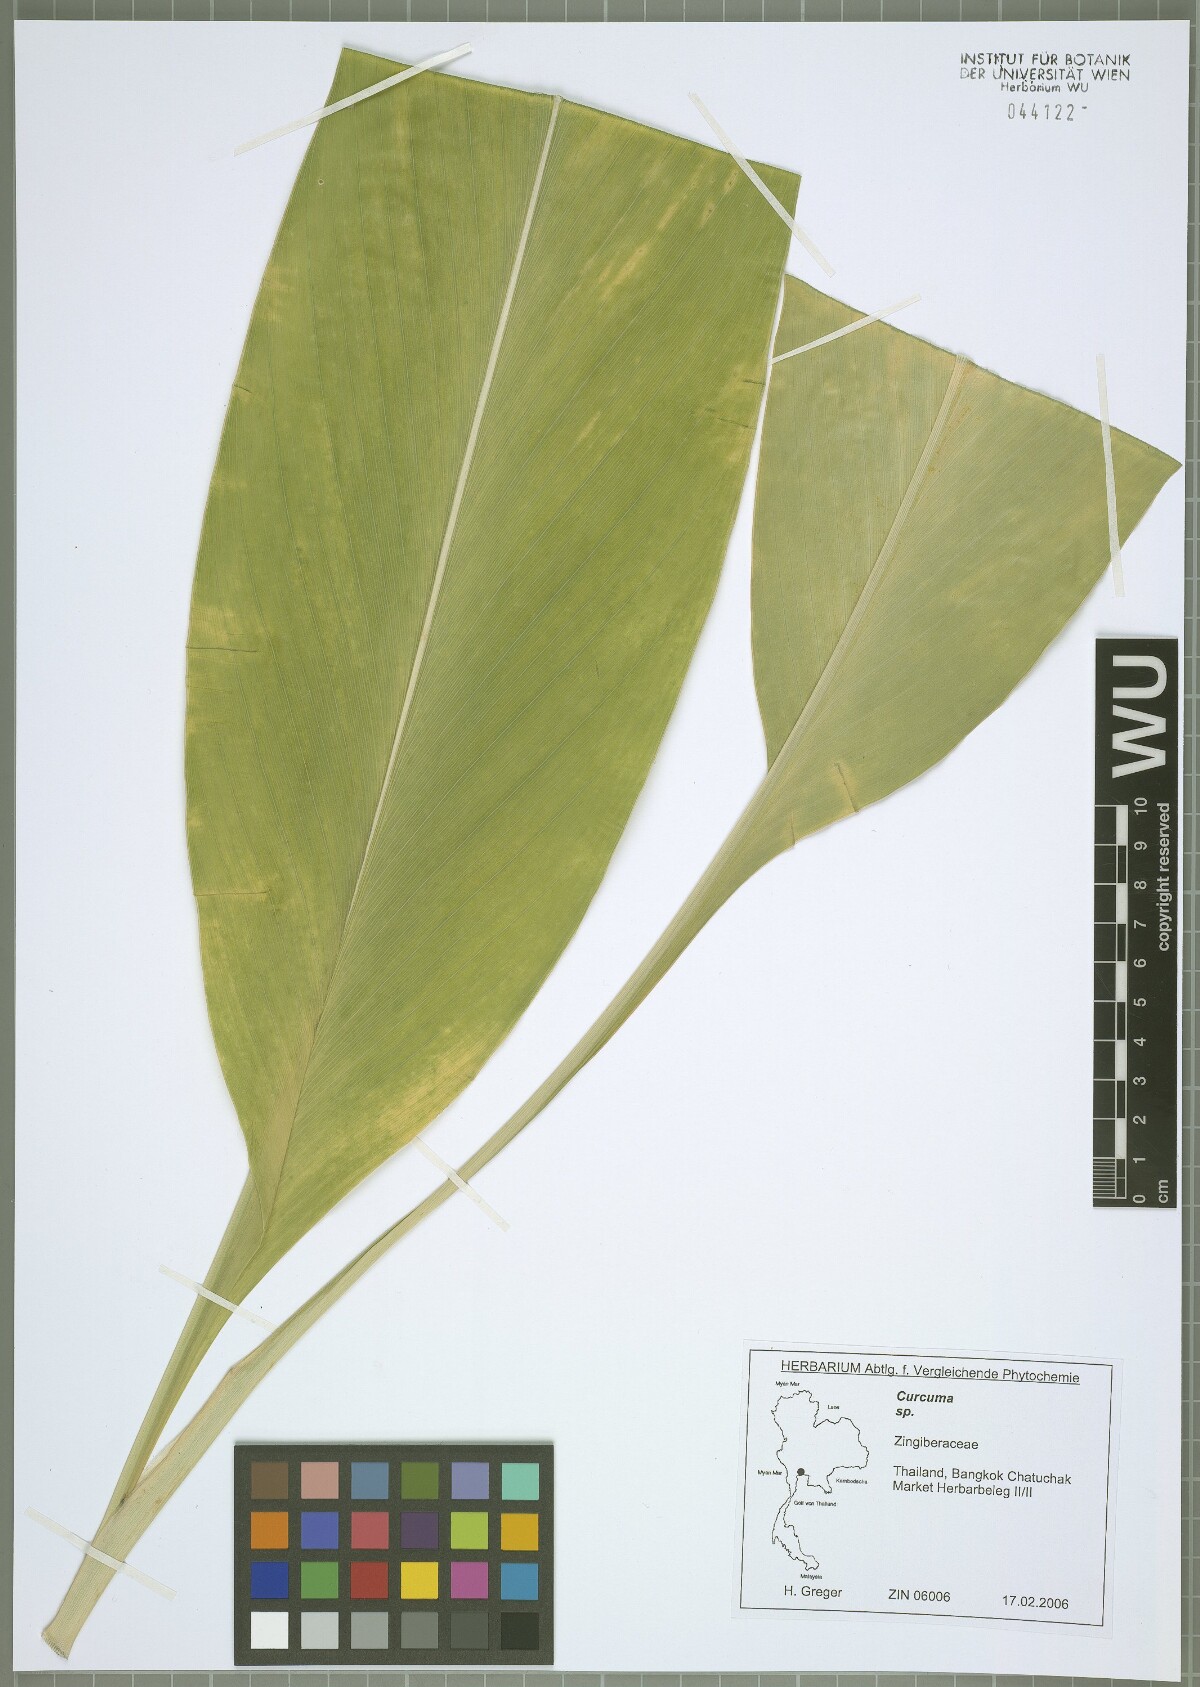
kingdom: Plantae
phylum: Tracheophyta
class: Liliopsida
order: Zingiberales
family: Zingiberaceae
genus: Curcuma
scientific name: Curcuma
